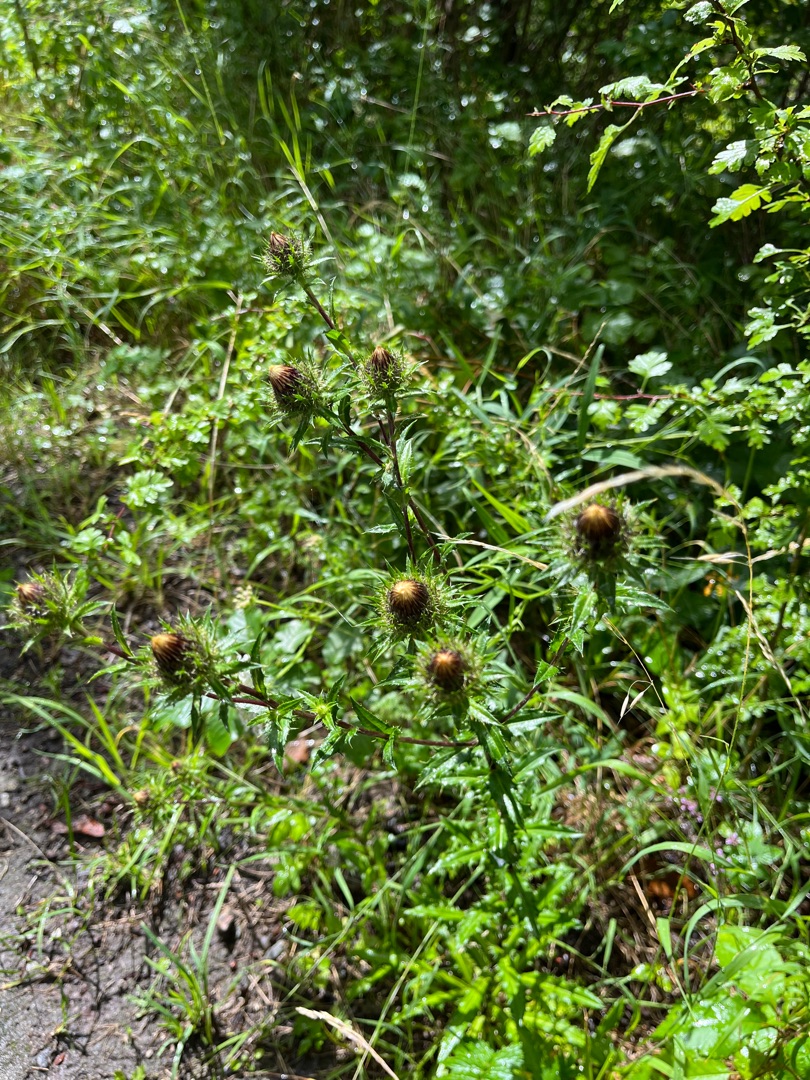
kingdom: Plantae
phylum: Tracheophyta
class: Magnoliopsida
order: Asterales
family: Asteraceae
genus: Carlina
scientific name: Carlina vulgaris
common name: Bakketidsel
